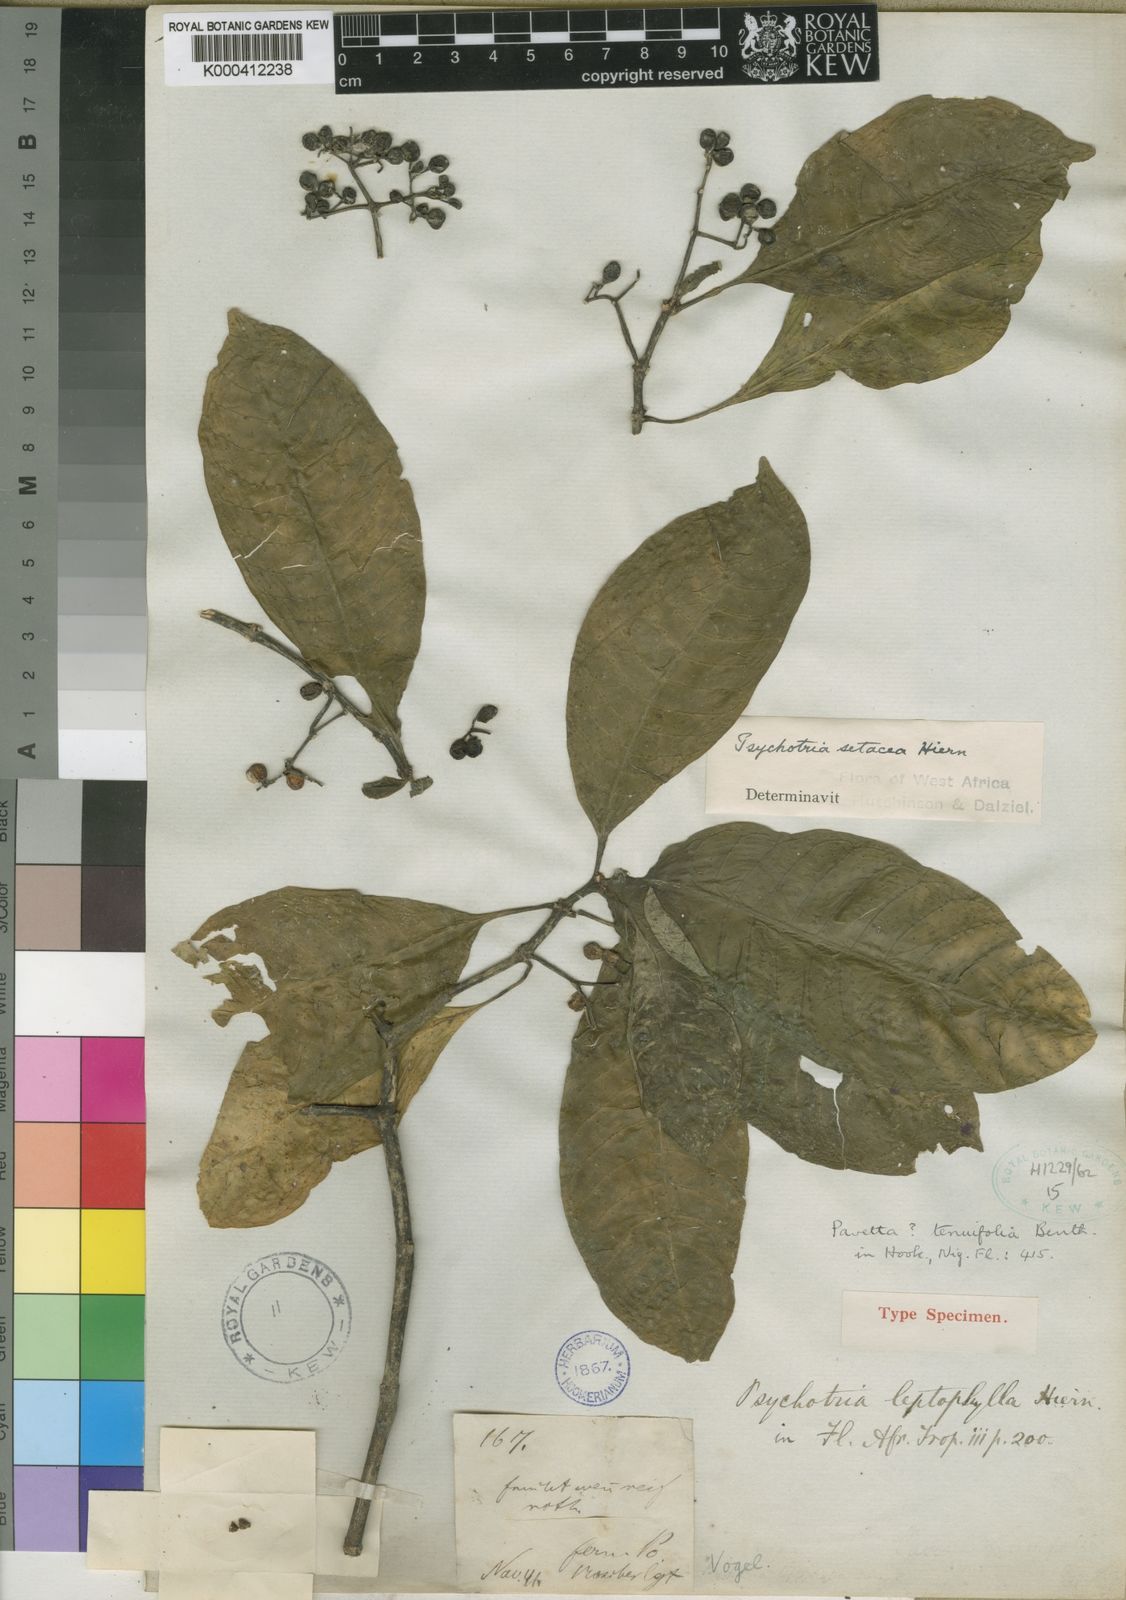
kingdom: Plantae
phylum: Tracheophyta
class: Magnoliopsida
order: Gentianales
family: Rubiaceae
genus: Psychotria
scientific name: Psychotria leptophylla
